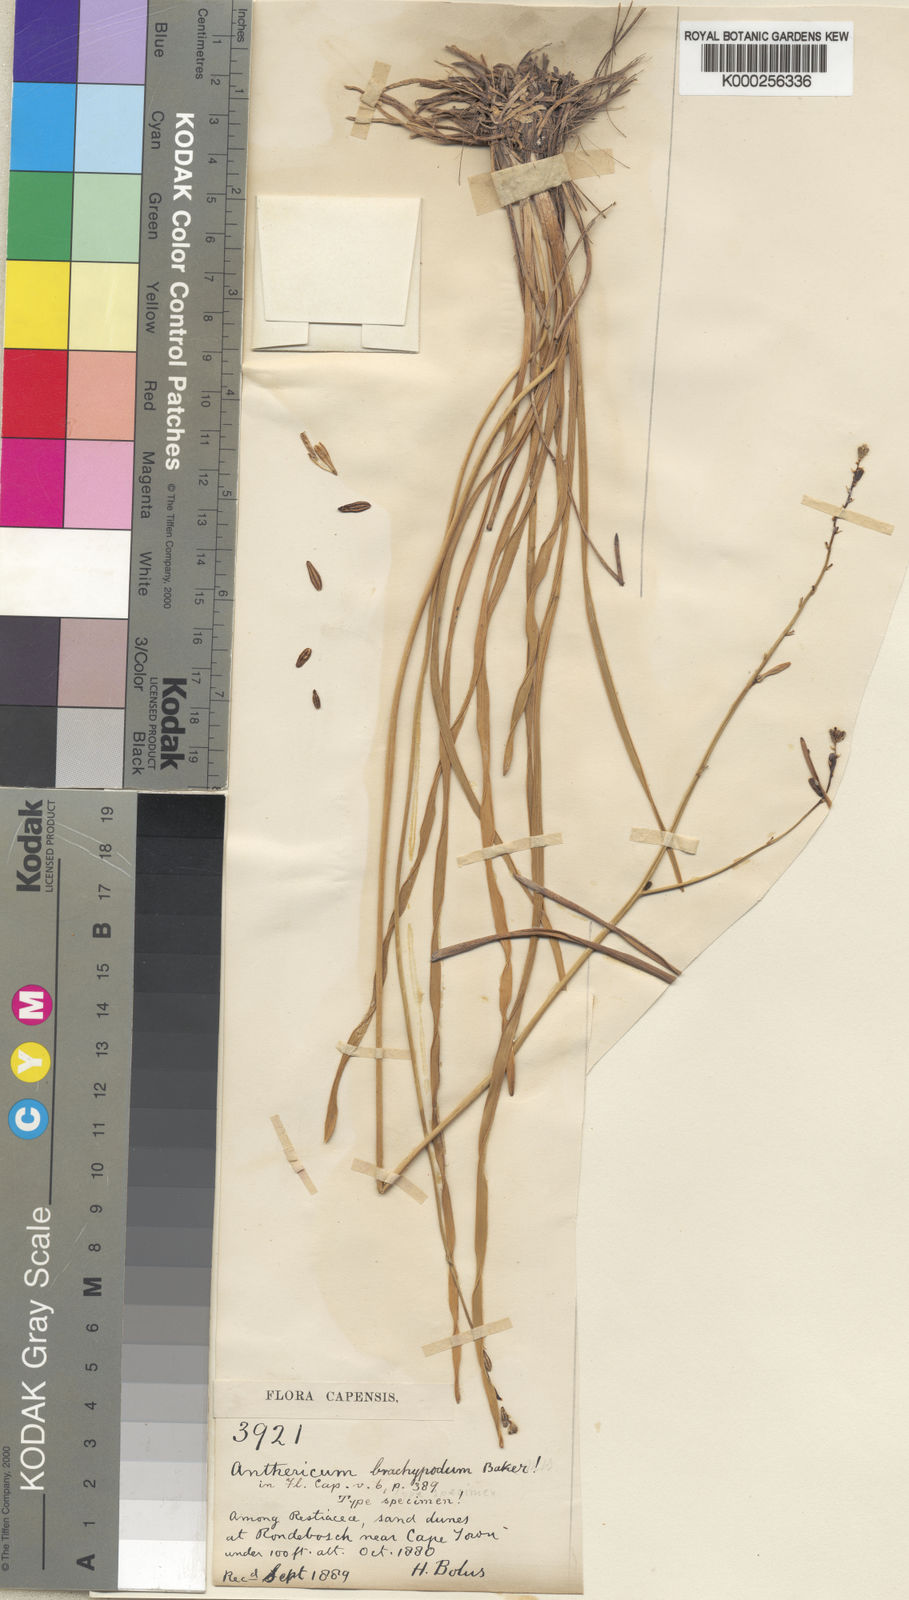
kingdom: Plantae
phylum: Tracheophyta
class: Liliopsida
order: Asparagales
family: Asphodelaceae
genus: Trachyandra
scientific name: Trachyandra brachypoda
